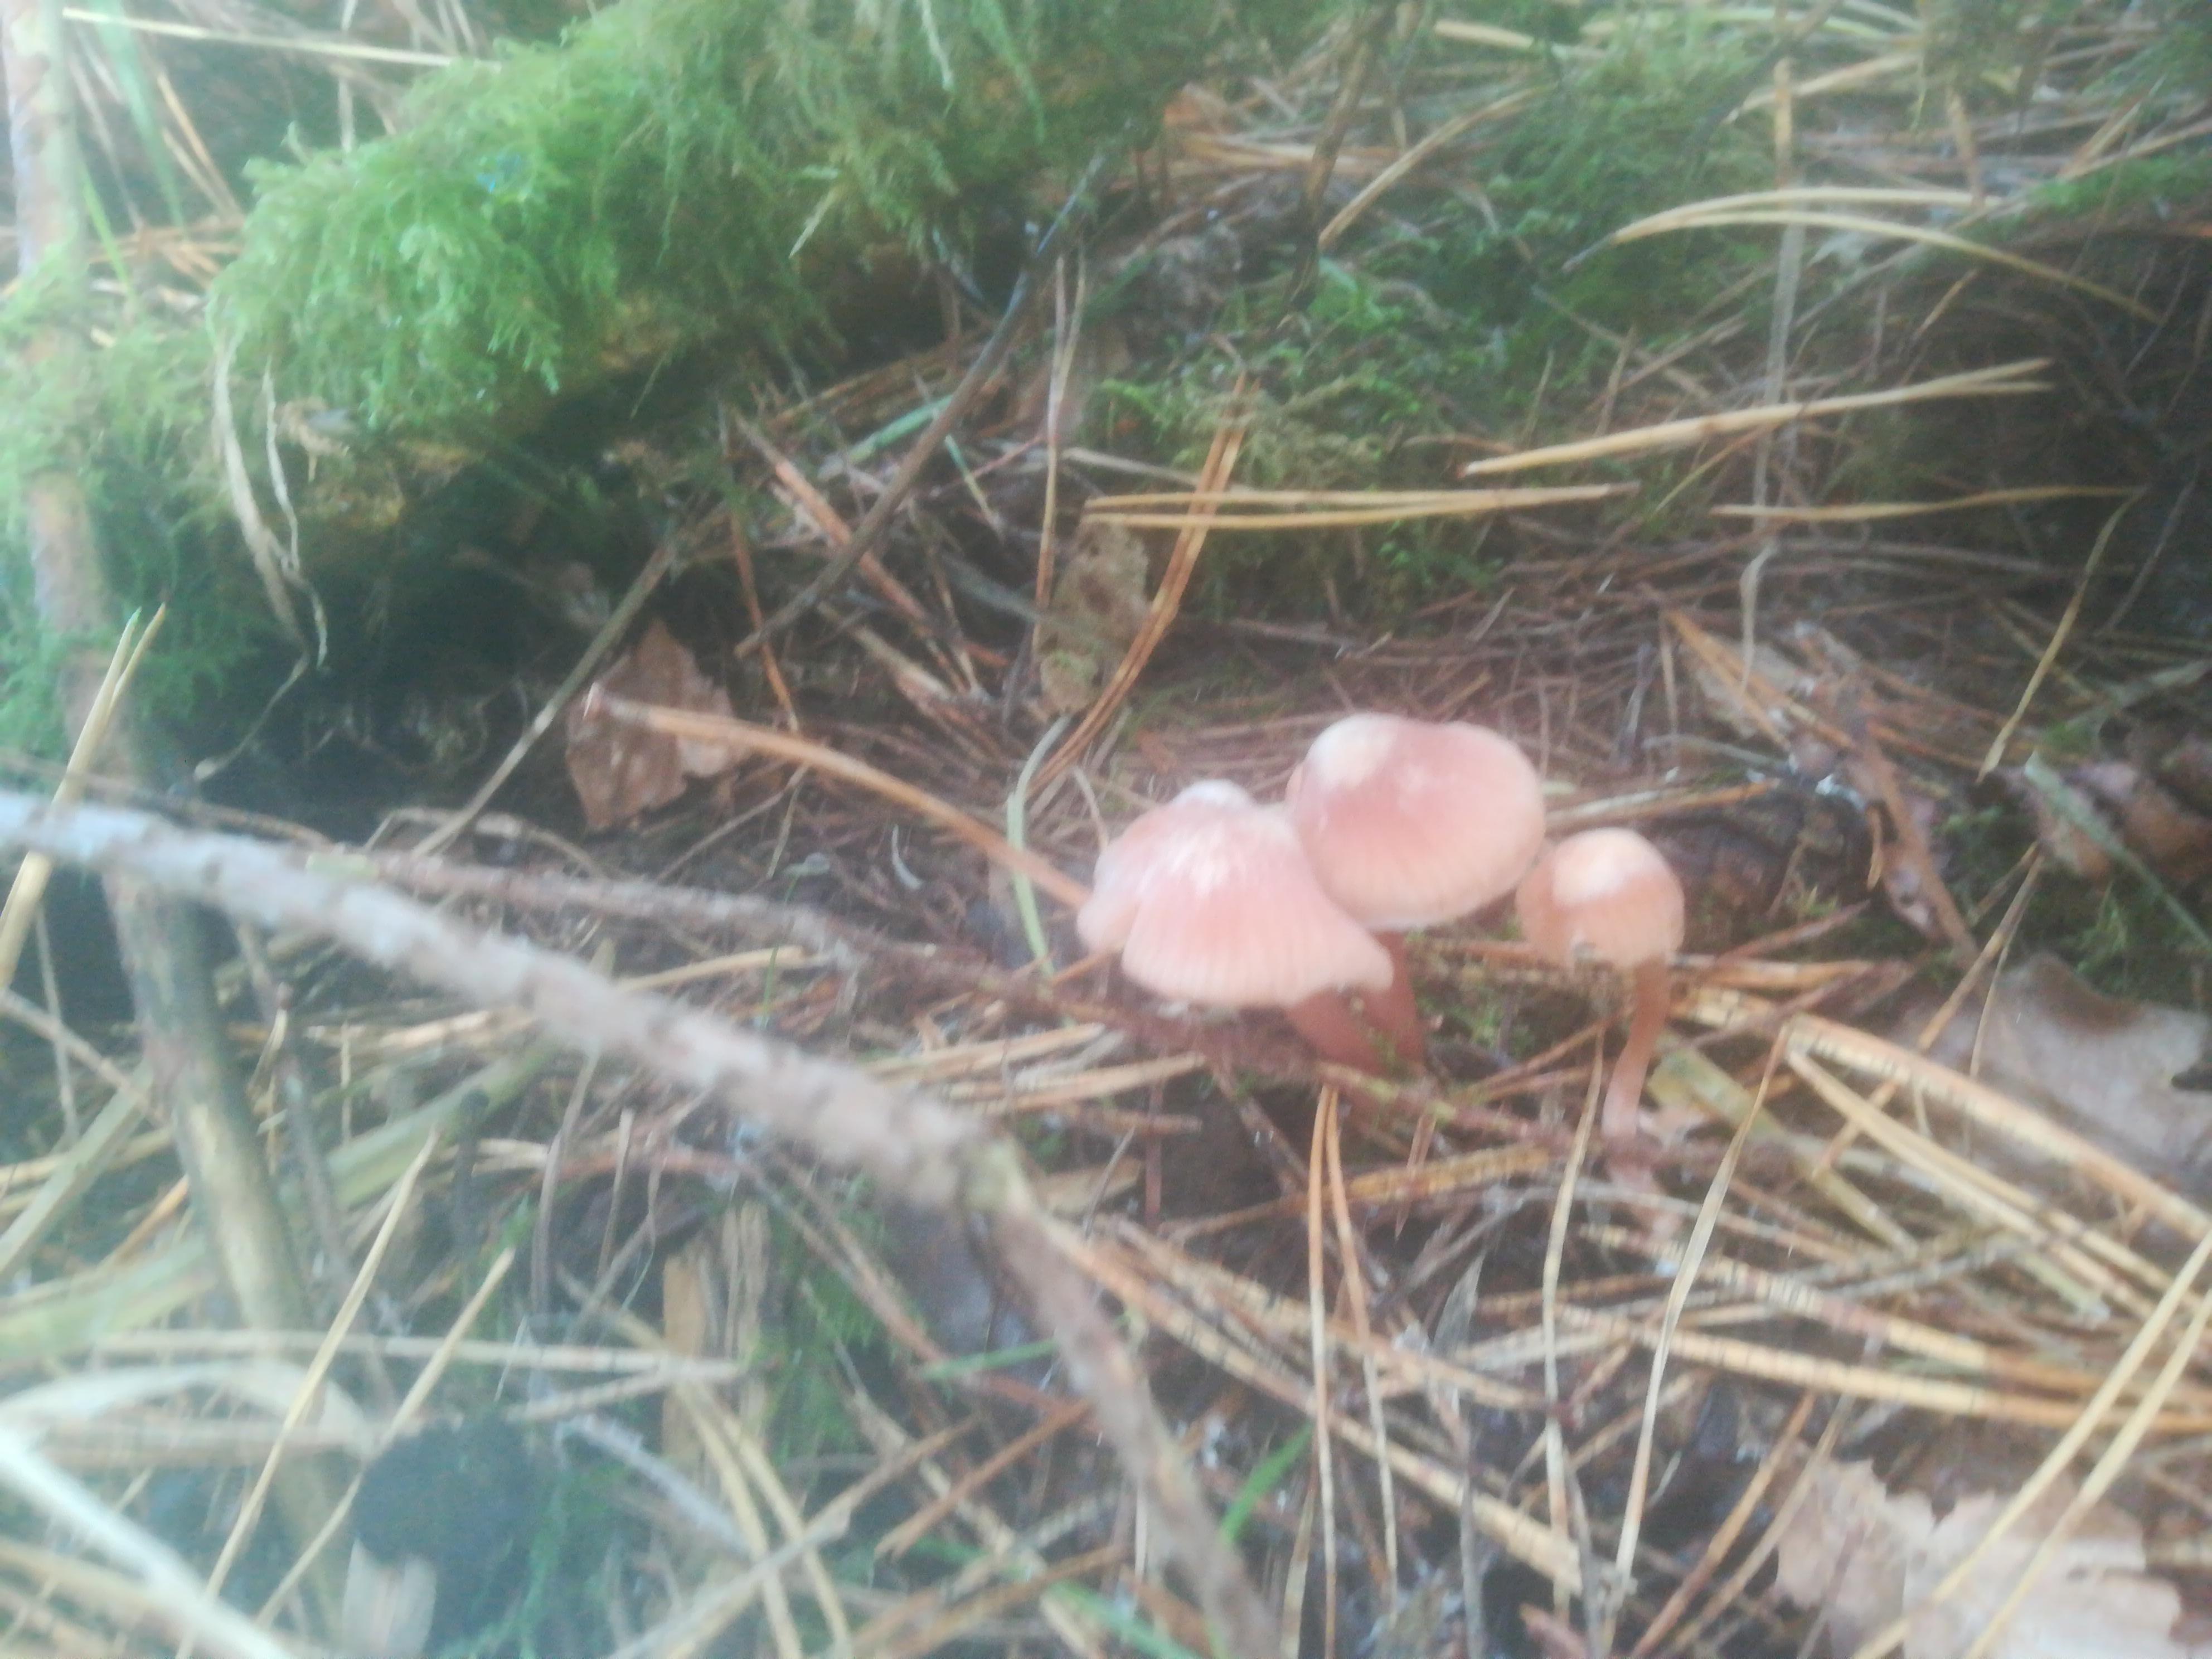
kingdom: Fungi
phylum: Basidiomycota
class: Agaricomycetes
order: Agaricales
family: Mycenaceae
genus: Mycena
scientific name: Mycena
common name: huesvamp
